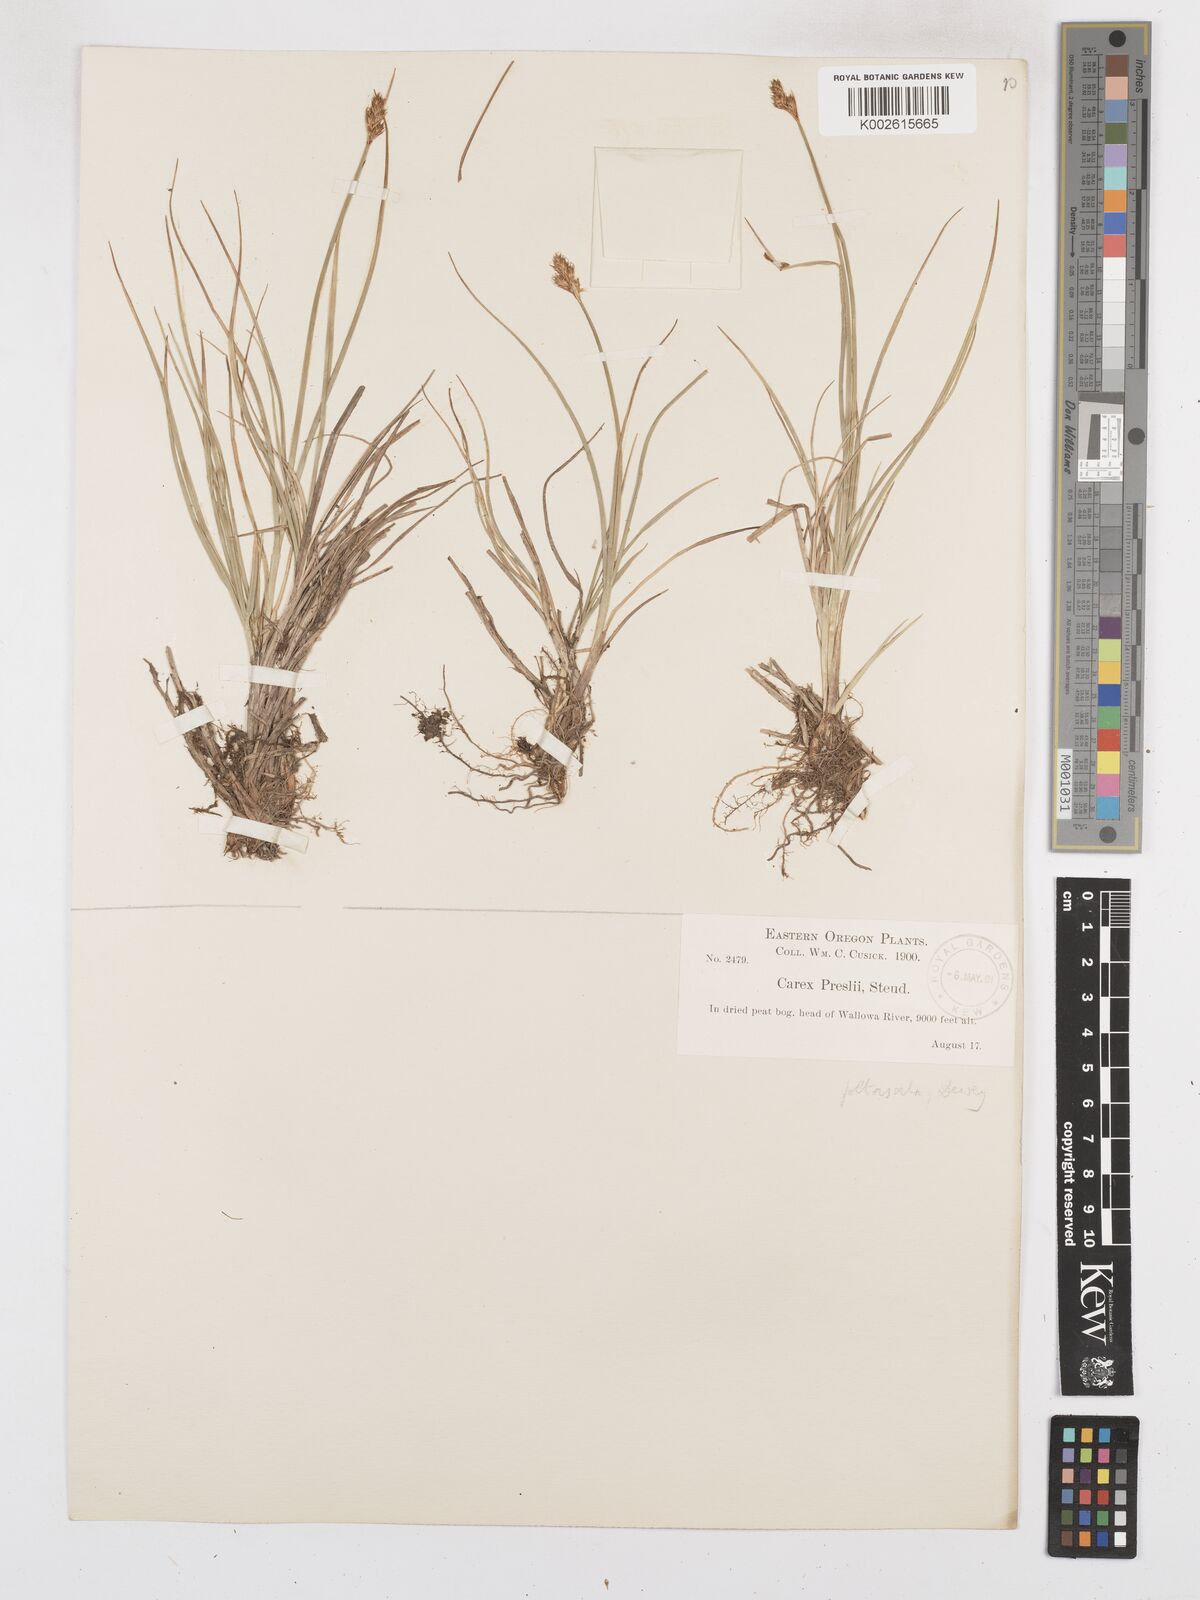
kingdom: Plantae
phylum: Tracheophyta
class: Liliopsida
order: Poales
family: Cyperaceae
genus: Carex
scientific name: Carex preslii
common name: Presl's sedge
